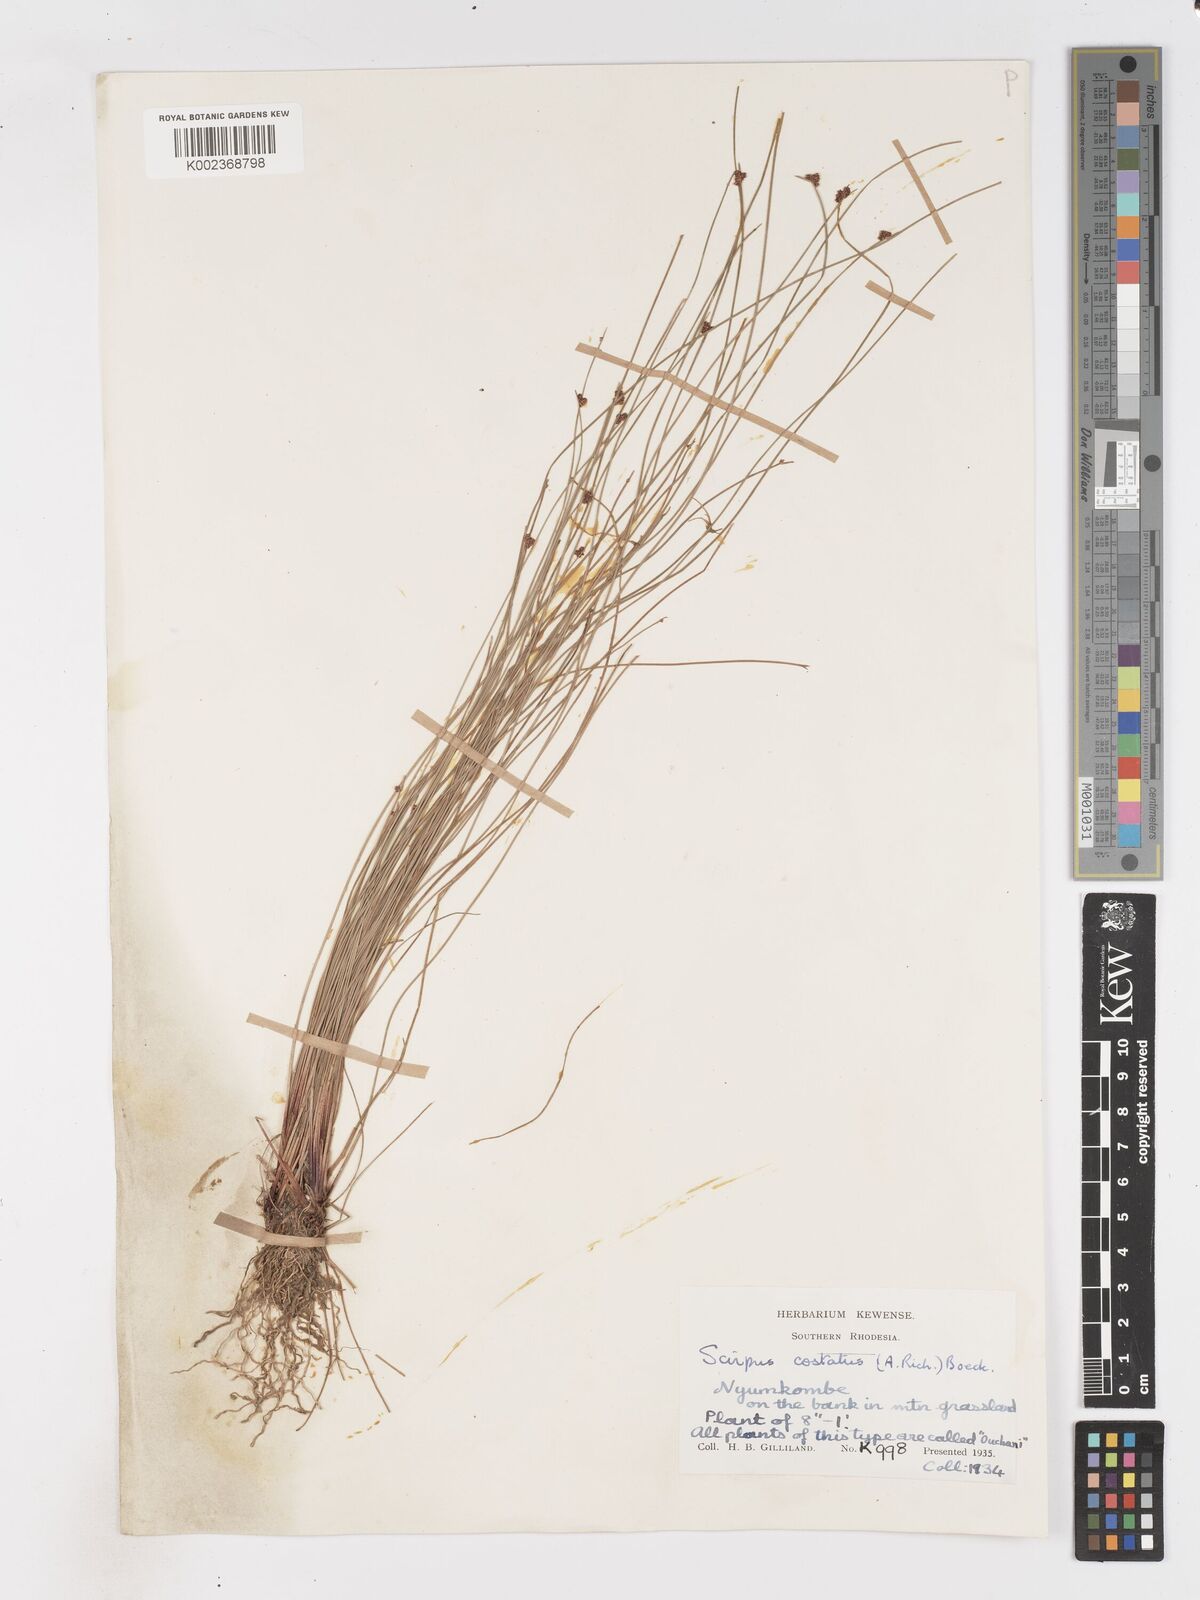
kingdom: Plantae
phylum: Tracheophyta
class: Liliopsida
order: Poales
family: Cyperaceae
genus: Isolepis
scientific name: Isolepis costata
